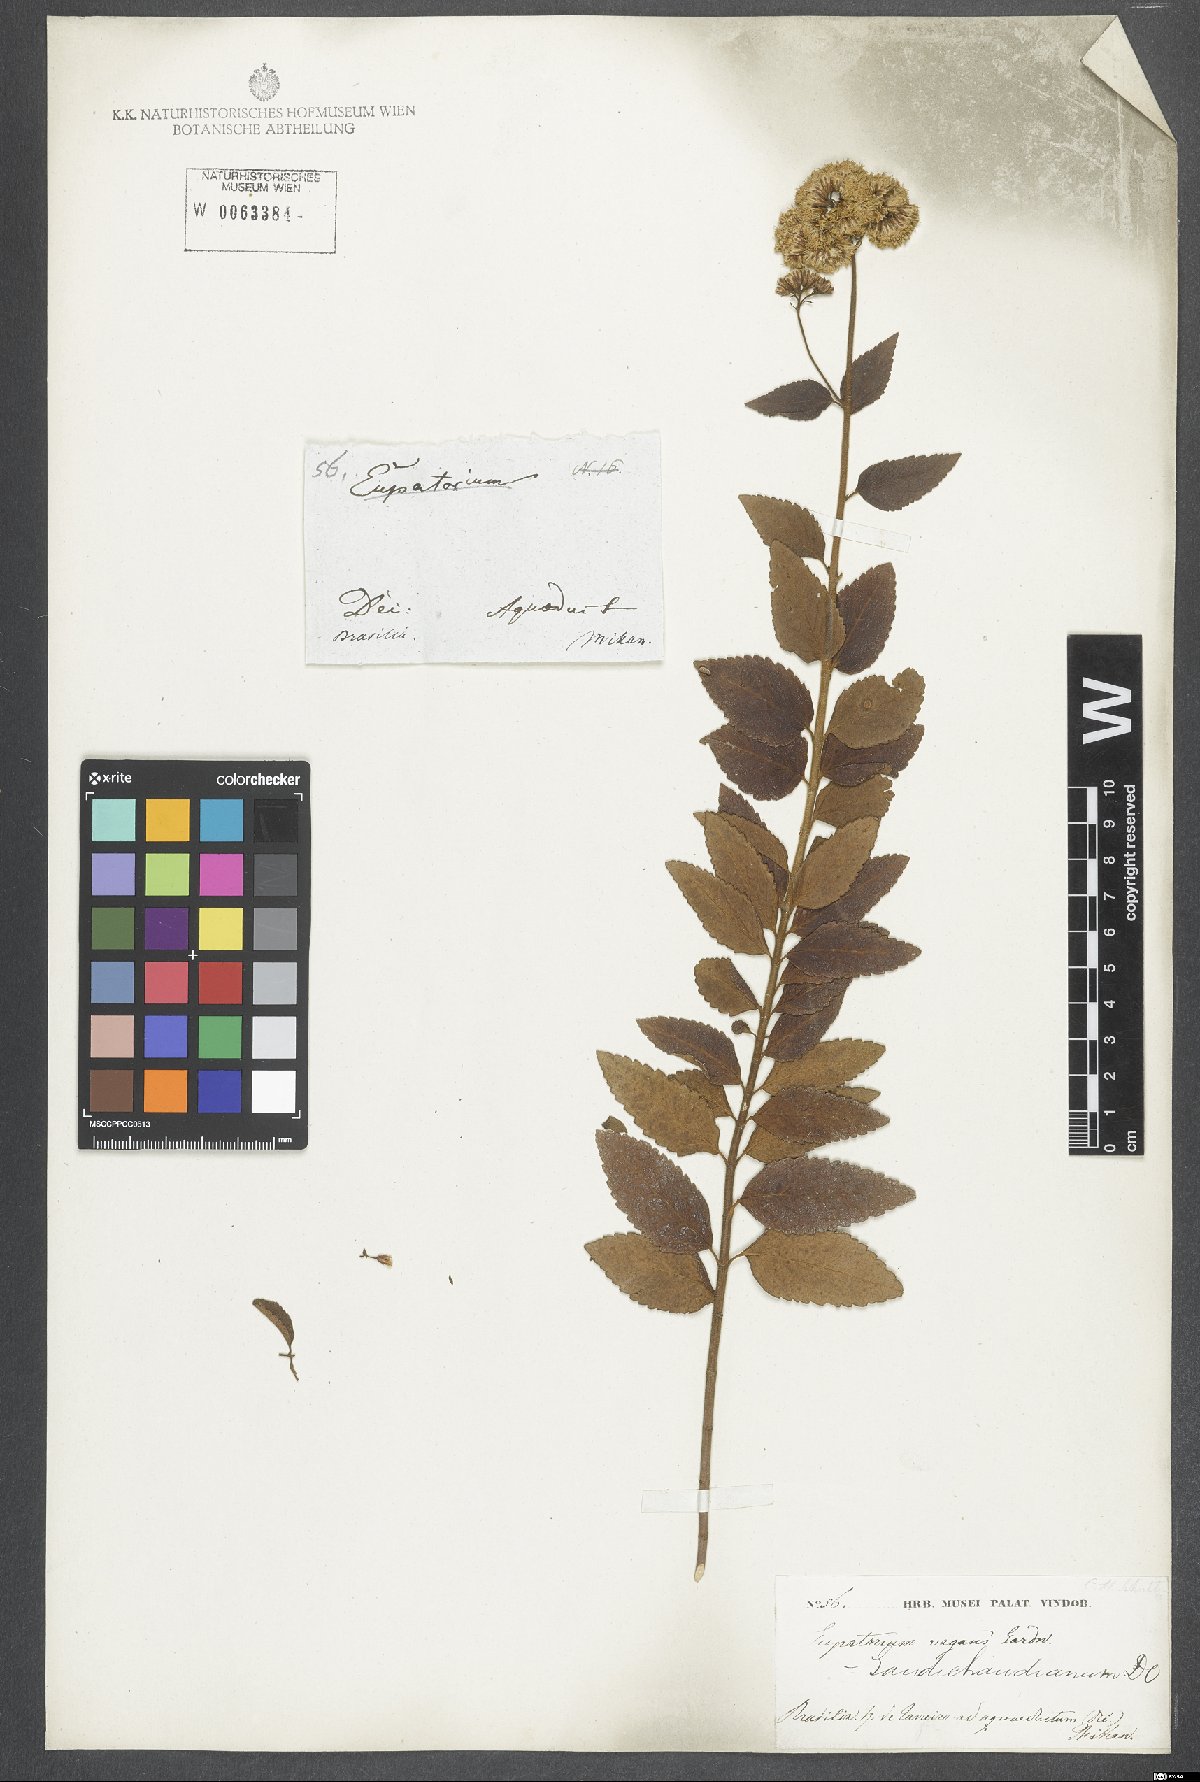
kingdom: Plantae
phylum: Tracheophyta
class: Magnoliopsida
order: Asterales
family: Asteraceae
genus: Grazielia
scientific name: Grazielia gaudichaudeana
